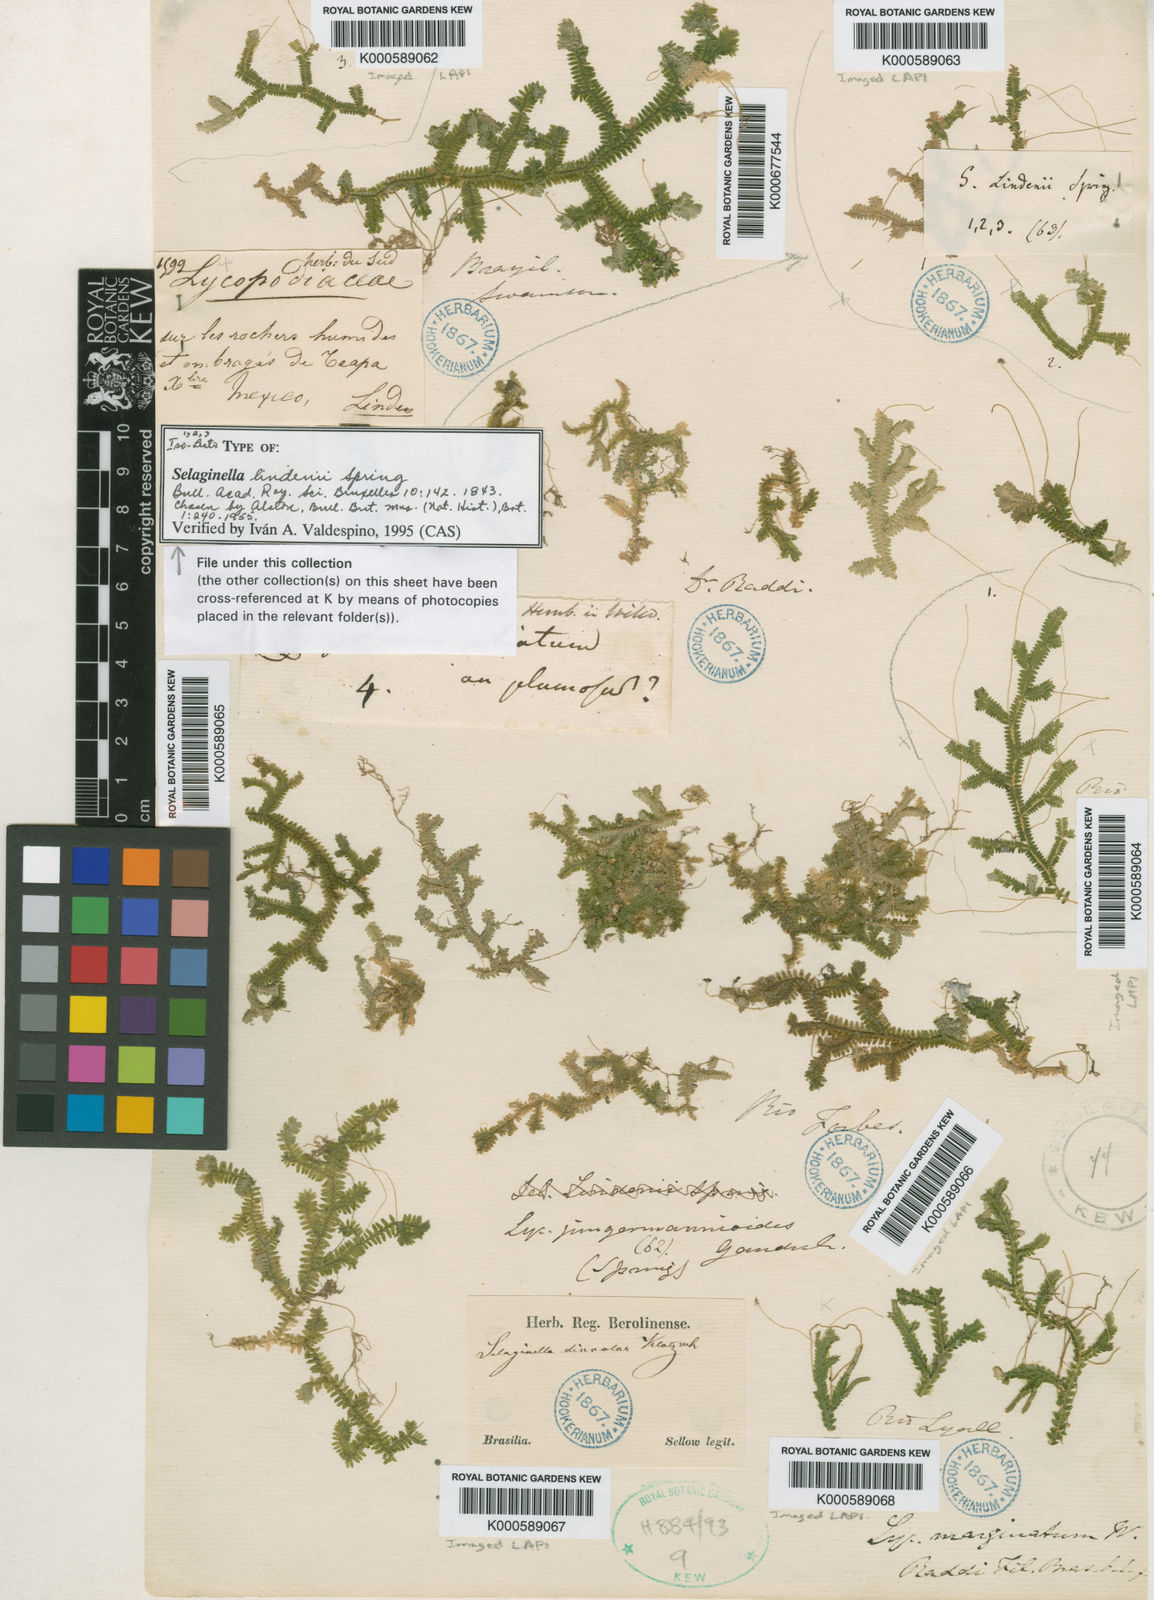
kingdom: Plantae
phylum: Tracheophyta
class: Lycopodiopsida
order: Selaginellales
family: Selaginellaceae
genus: Selaginella
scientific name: Selaginella lindenii
